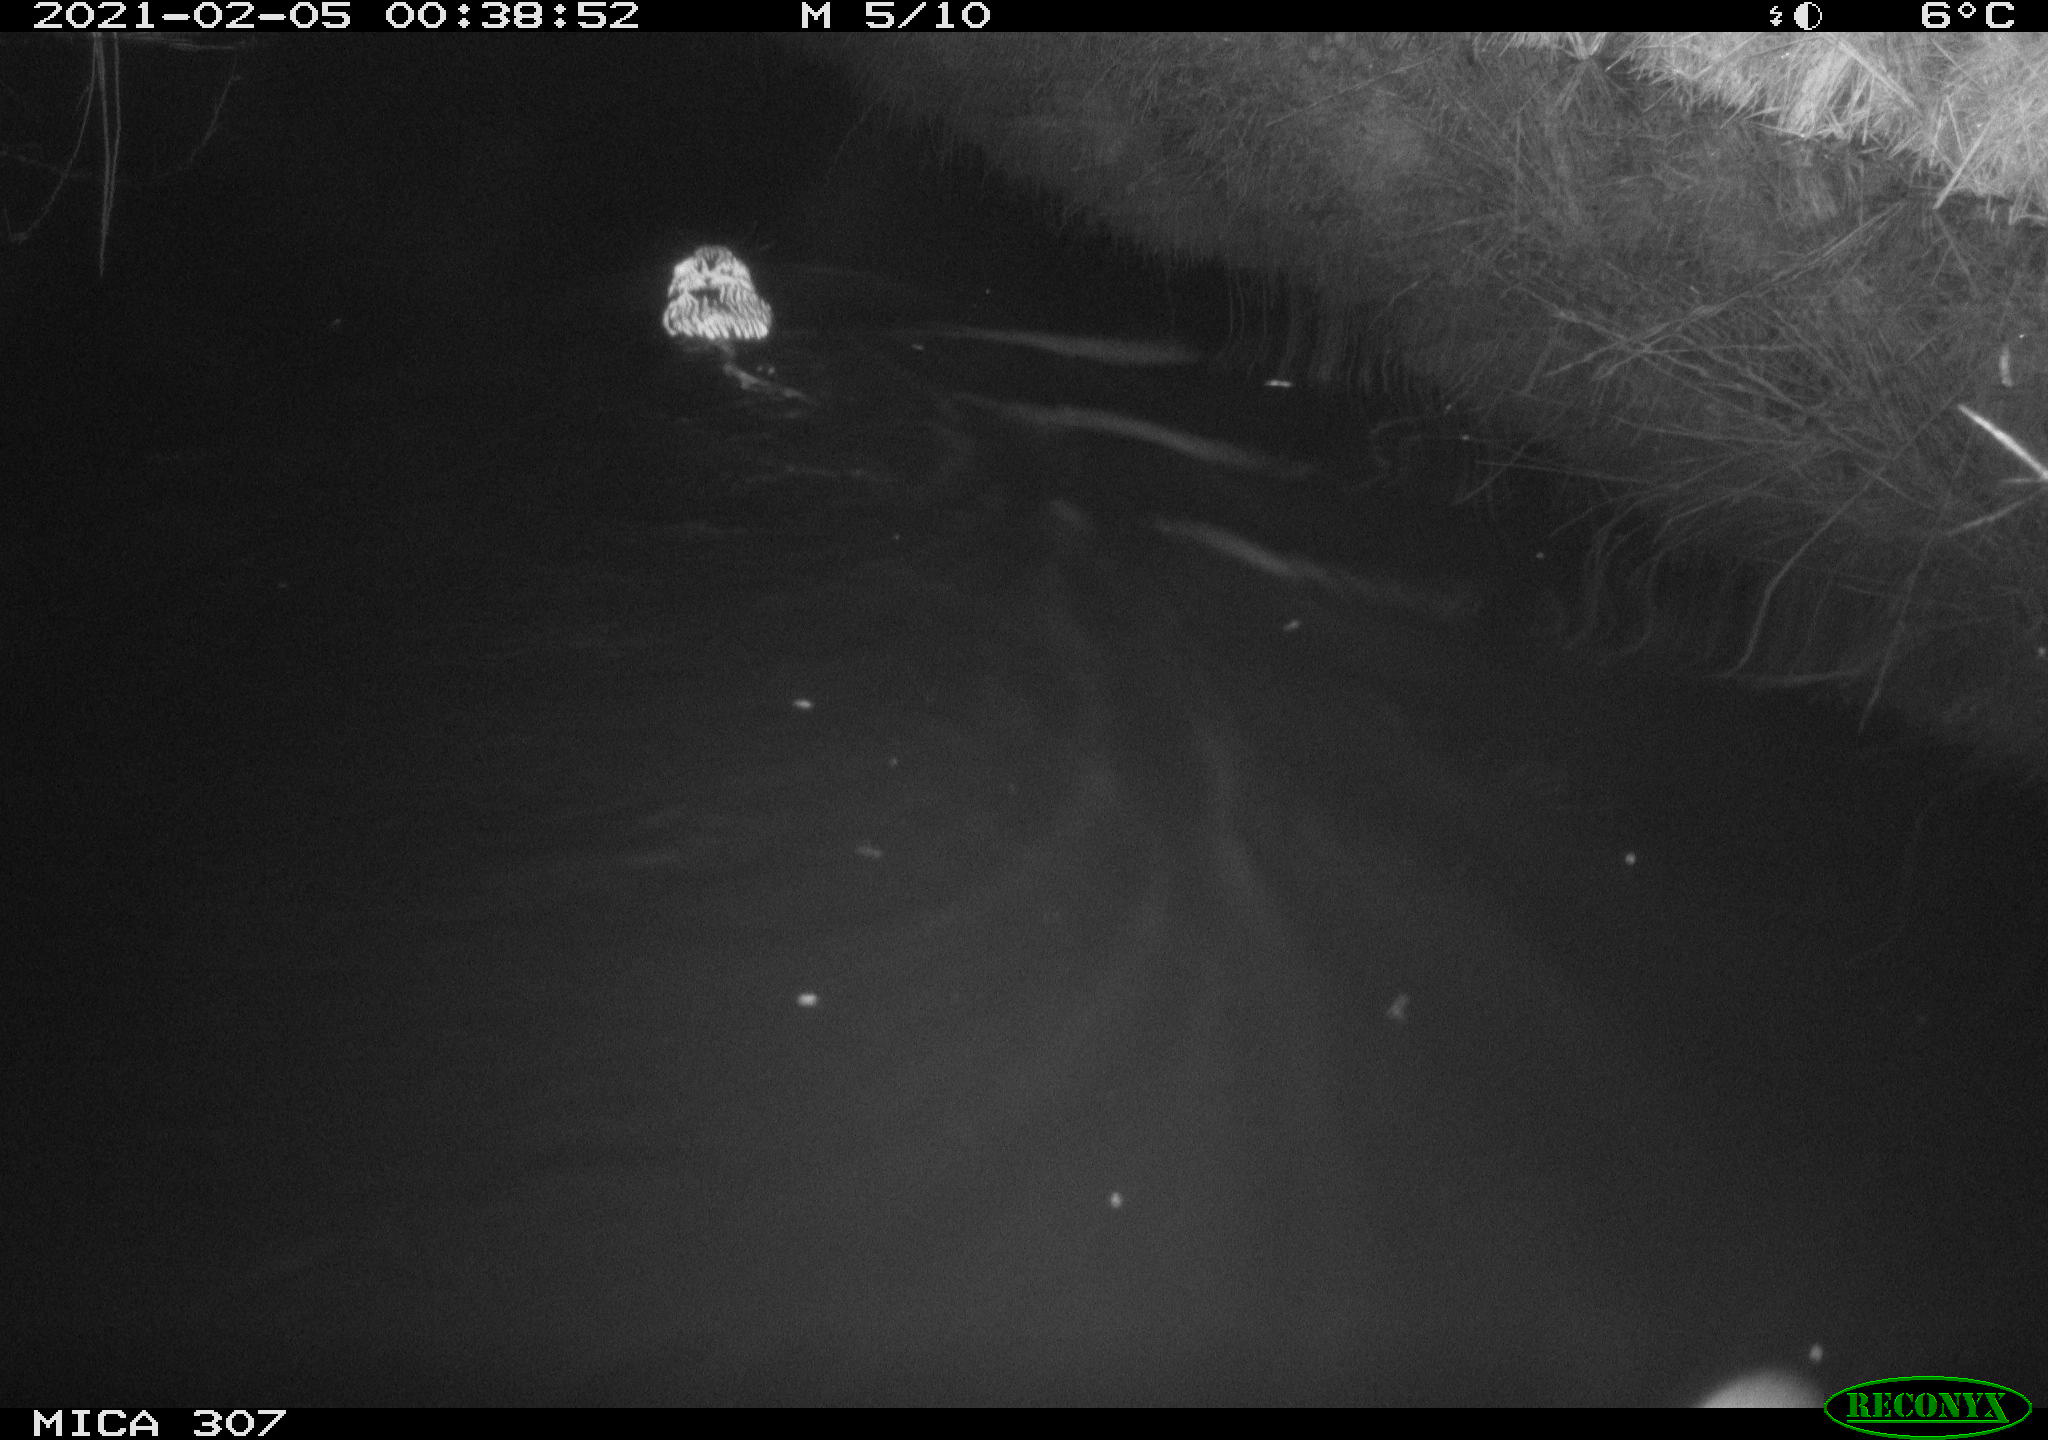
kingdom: Animalia
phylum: Chordata
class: Mammalia
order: Rodentia
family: Cricetidae
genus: Ondatra
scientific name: Ondatra zibethicus
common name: Muskrat
